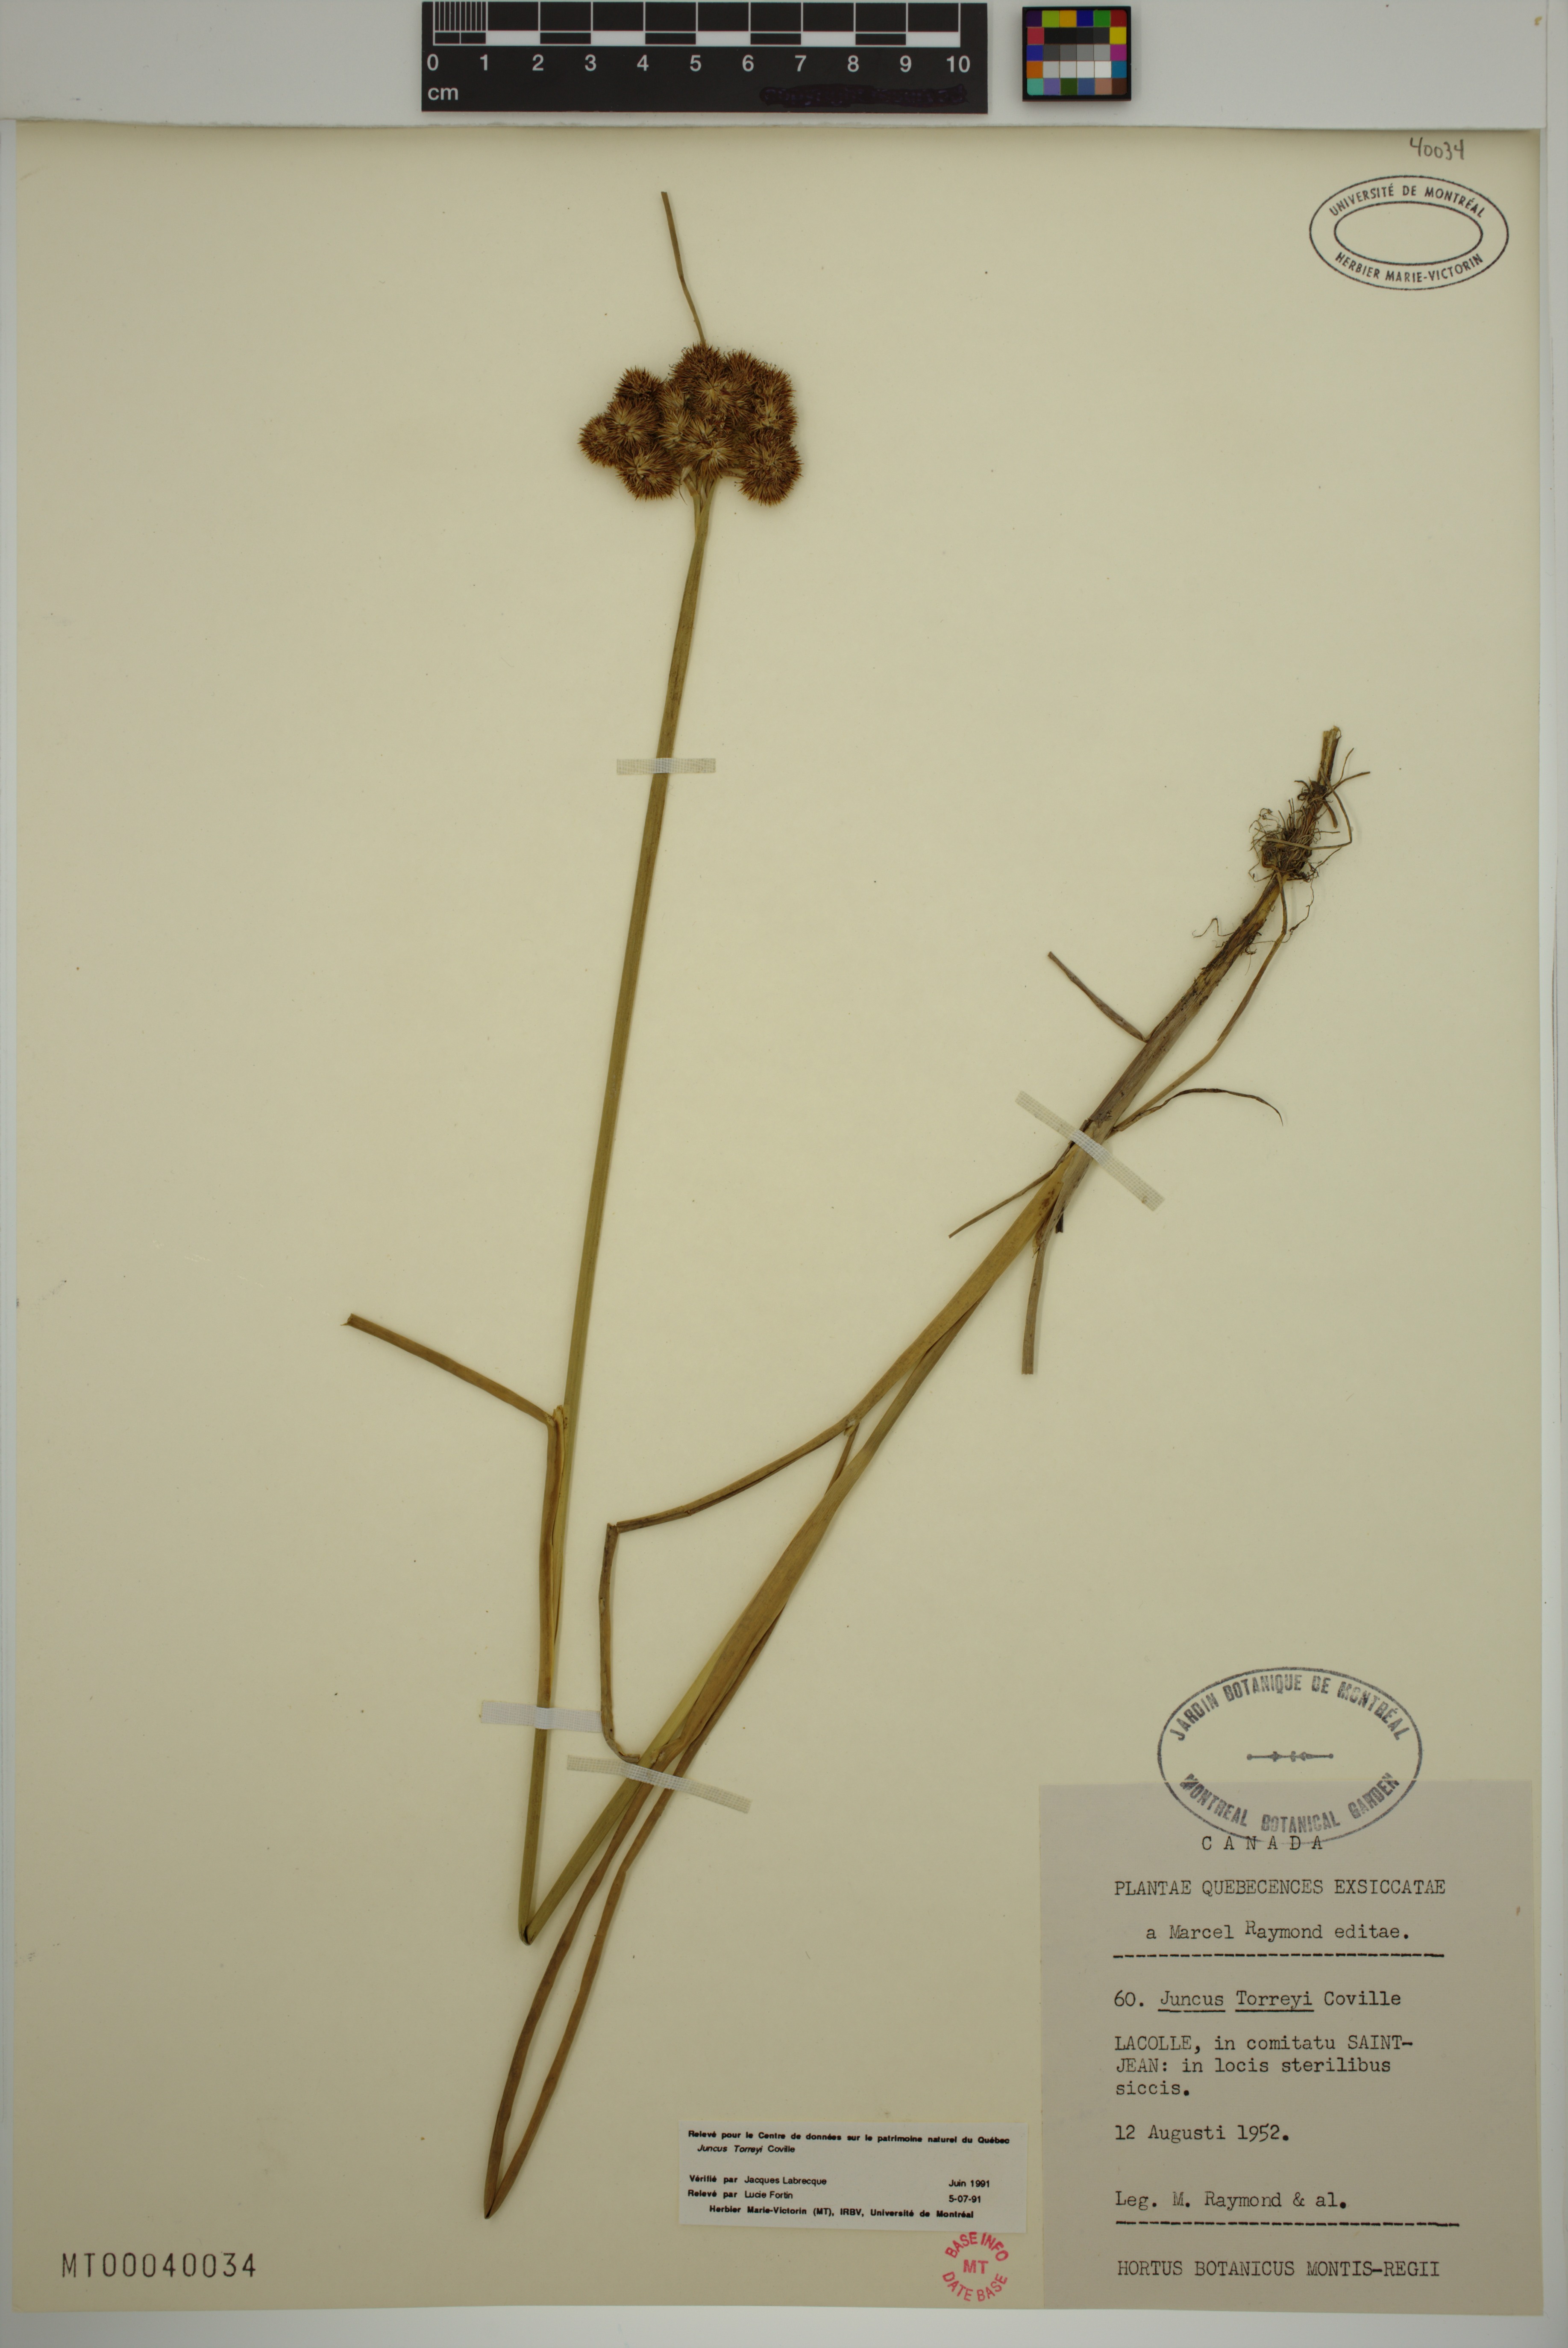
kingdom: Plantae
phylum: Tracheophyta
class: Liliopsida
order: Poales
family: Juncaceae
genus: Juncus
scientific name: Juncus torreyi
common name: Torrey's rush
